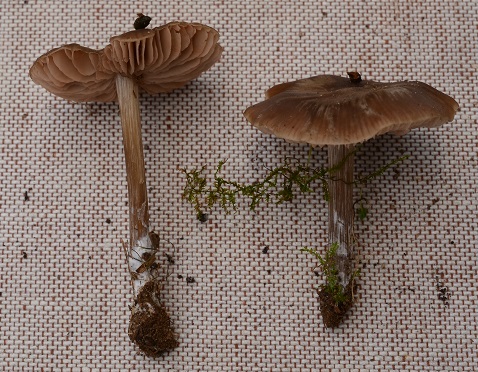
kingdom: Fungi
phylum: Basidiomycota
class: Agaricomycetes
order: Agaricales
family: Entolomataceae
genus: Entoloma
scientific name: Entoloma sericeum
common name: silkeglinsende rødblad
